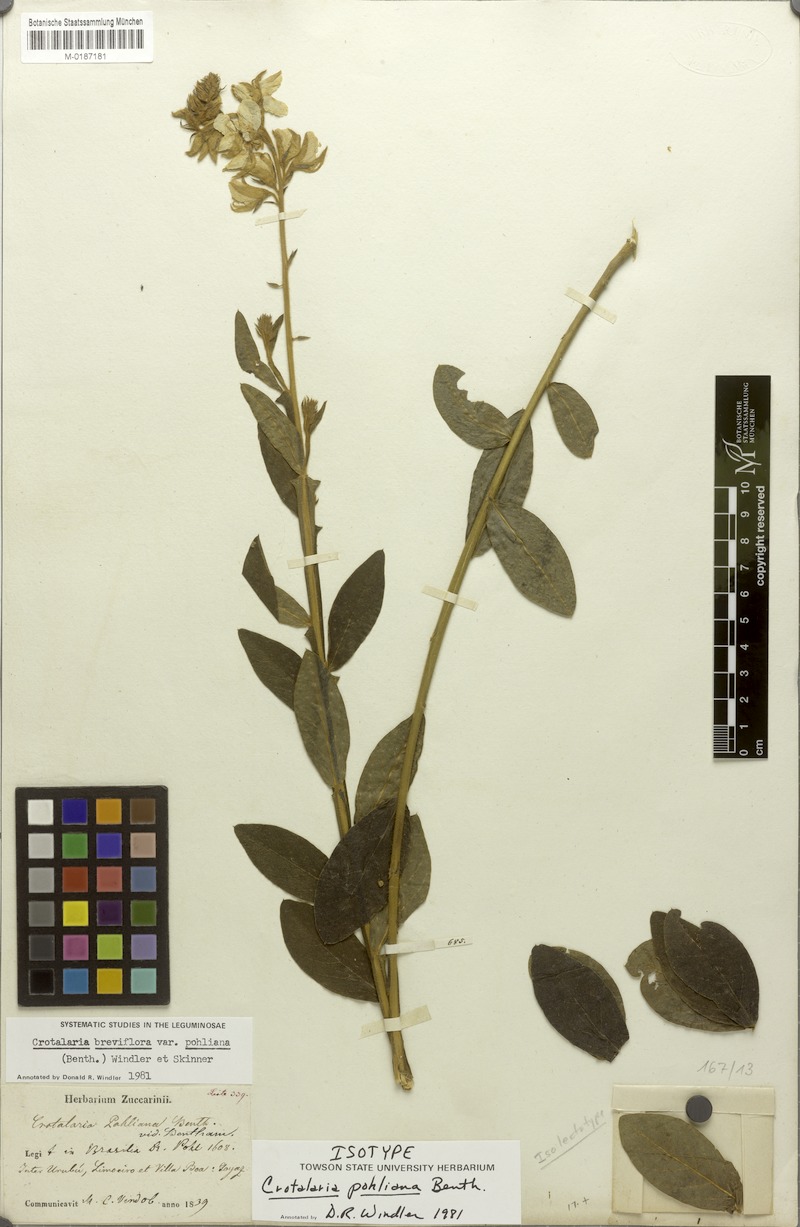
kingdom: Plantae
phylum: Tracheophyta
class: Magnoliopsida
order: Fabales
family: Fabaceae
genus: Crotalaria
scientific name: Crotalaria breviflora
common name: Short-flower crotalaria
